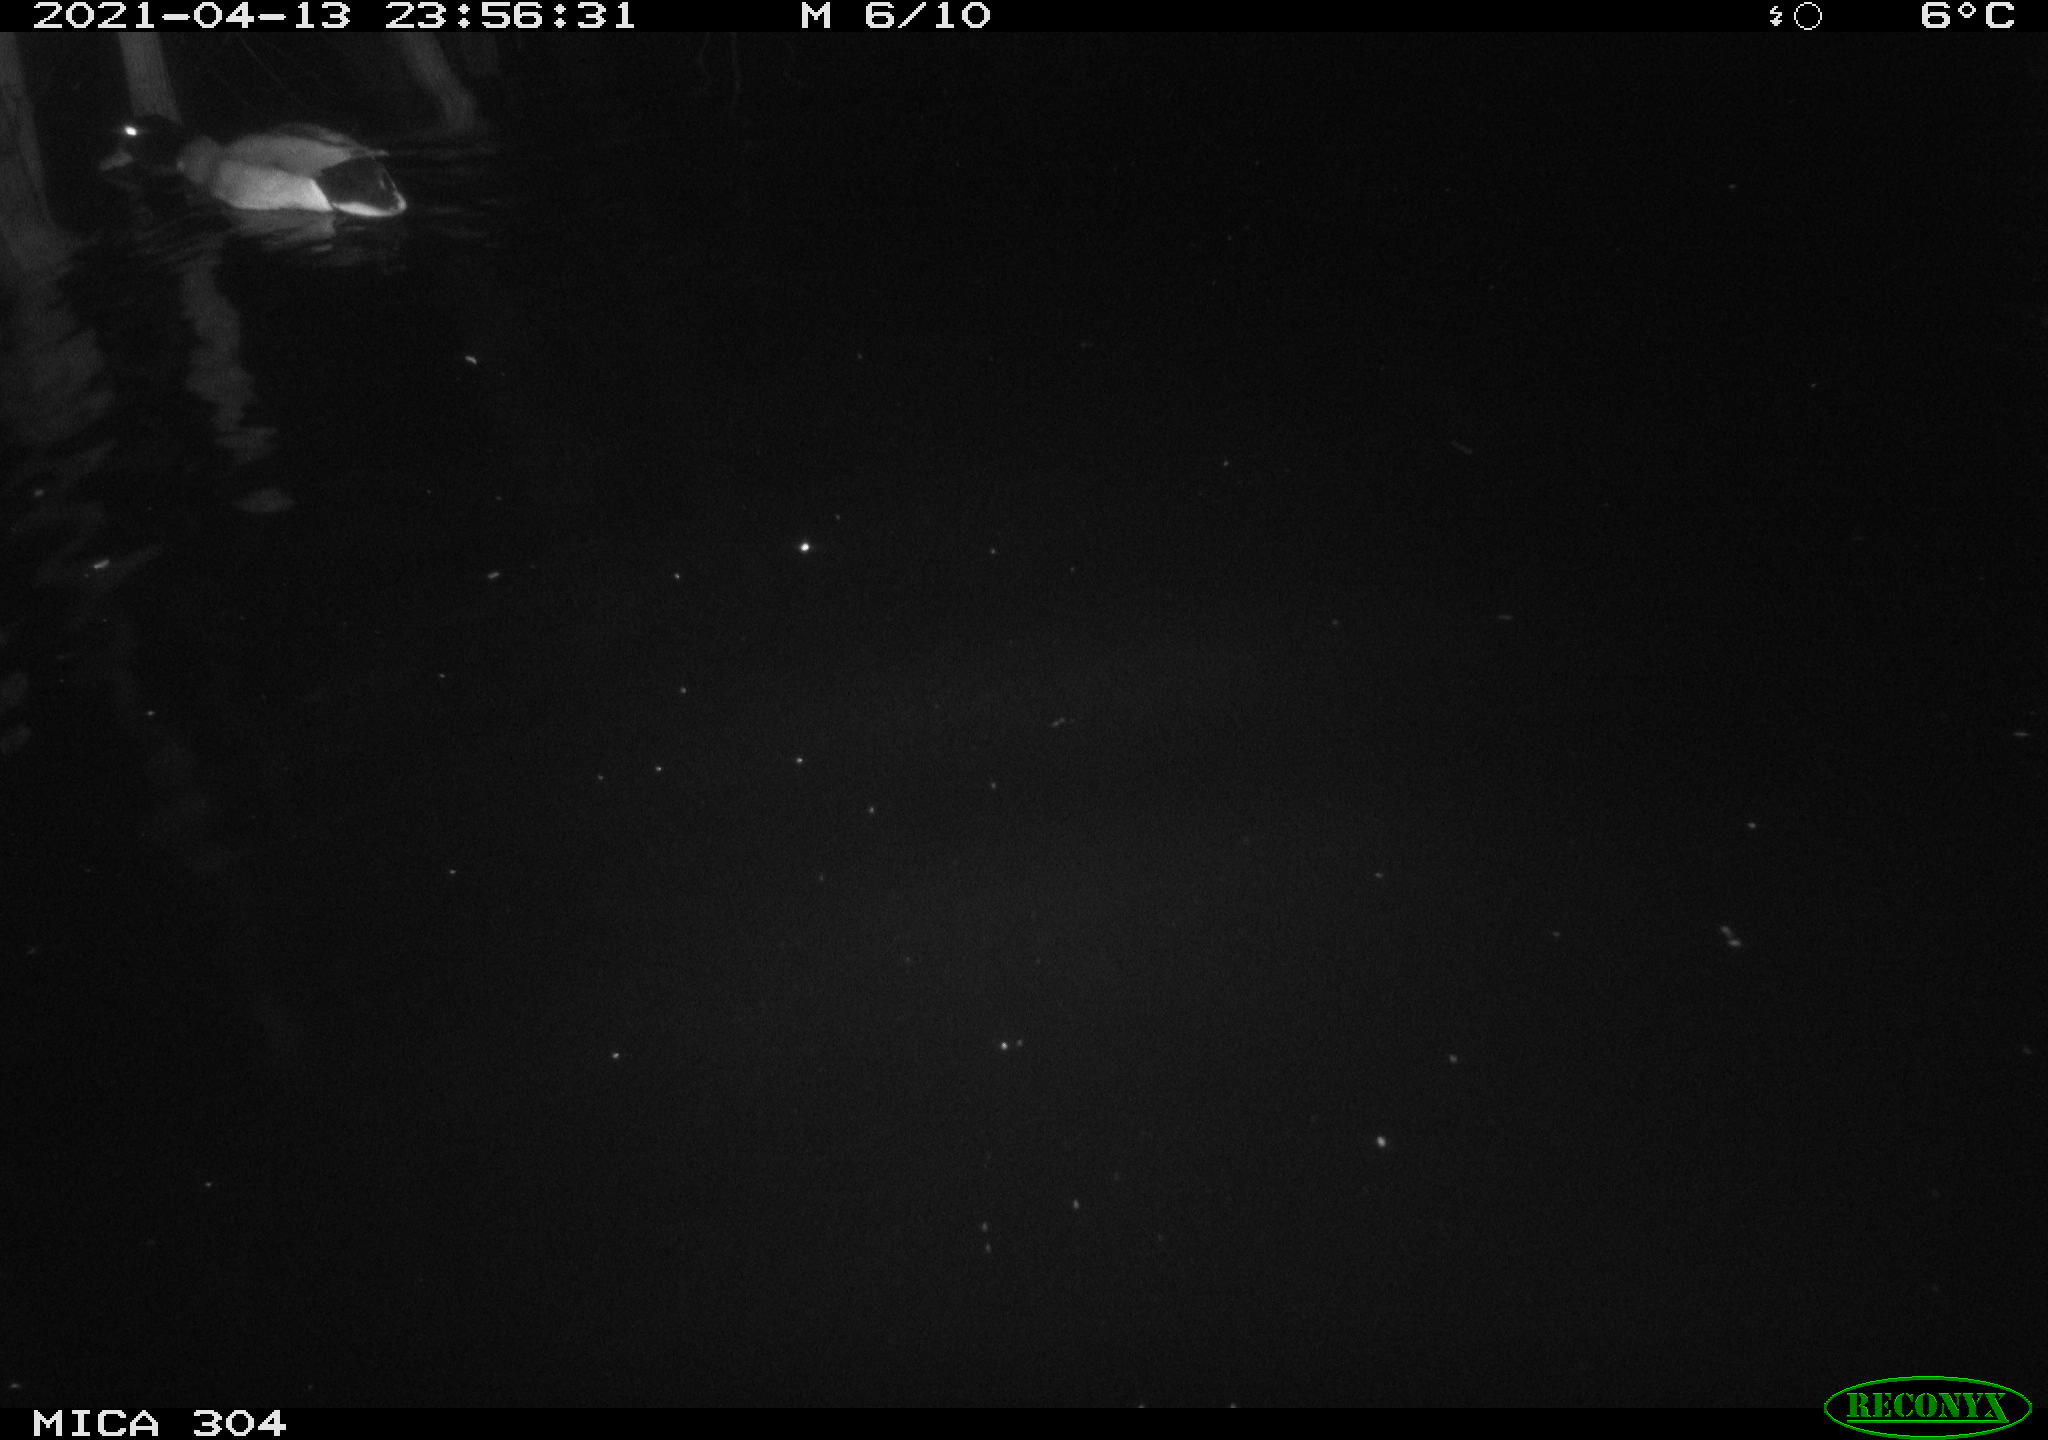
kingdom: Animalia
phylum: Chordata
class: Aves
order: Anseriformes
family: Anatidae
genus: Anas
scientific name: Anas
